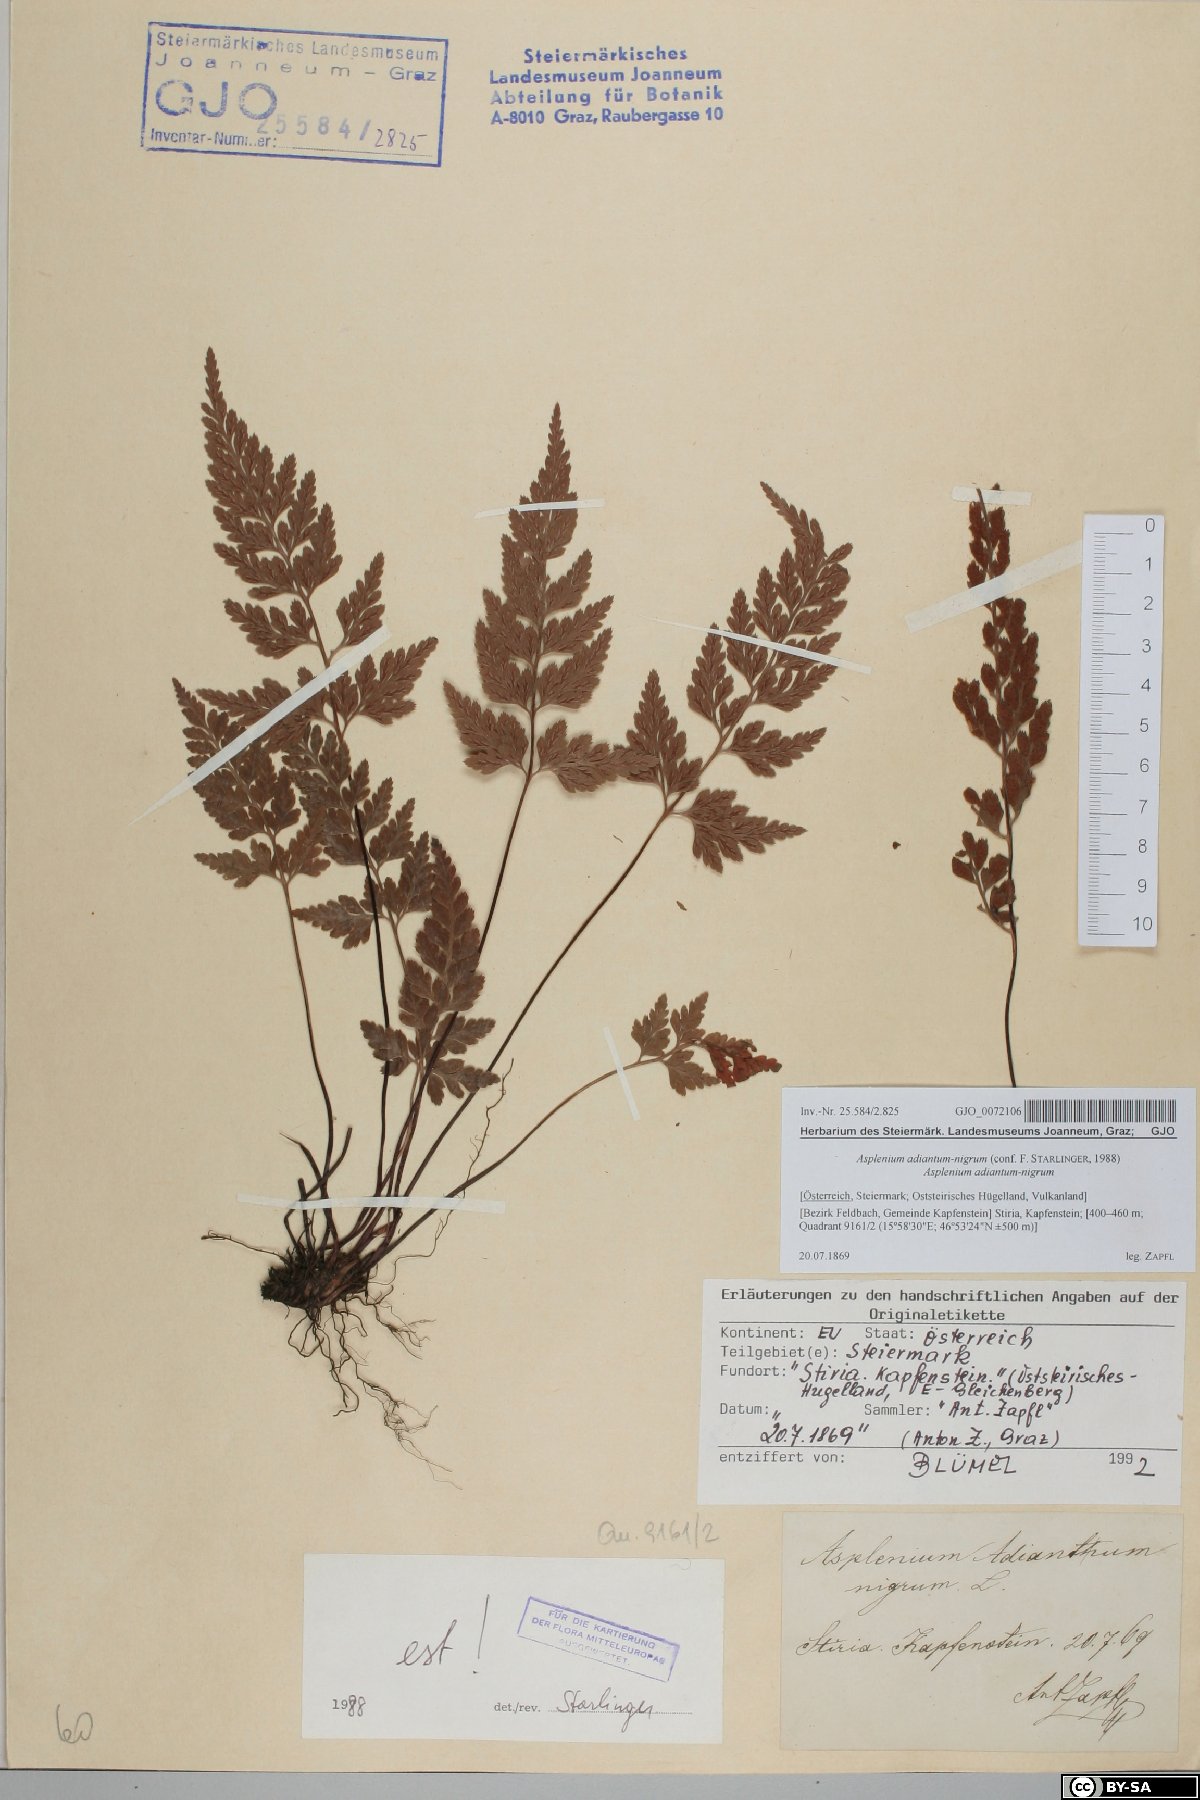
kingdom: Plantae
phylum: Tracheophyta
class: Polypodiopsida
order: Polypodiales
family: Aspleniaceae
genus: Asplenium
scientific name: Asplenium adiantum-nigrum
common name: Black spleenwort
